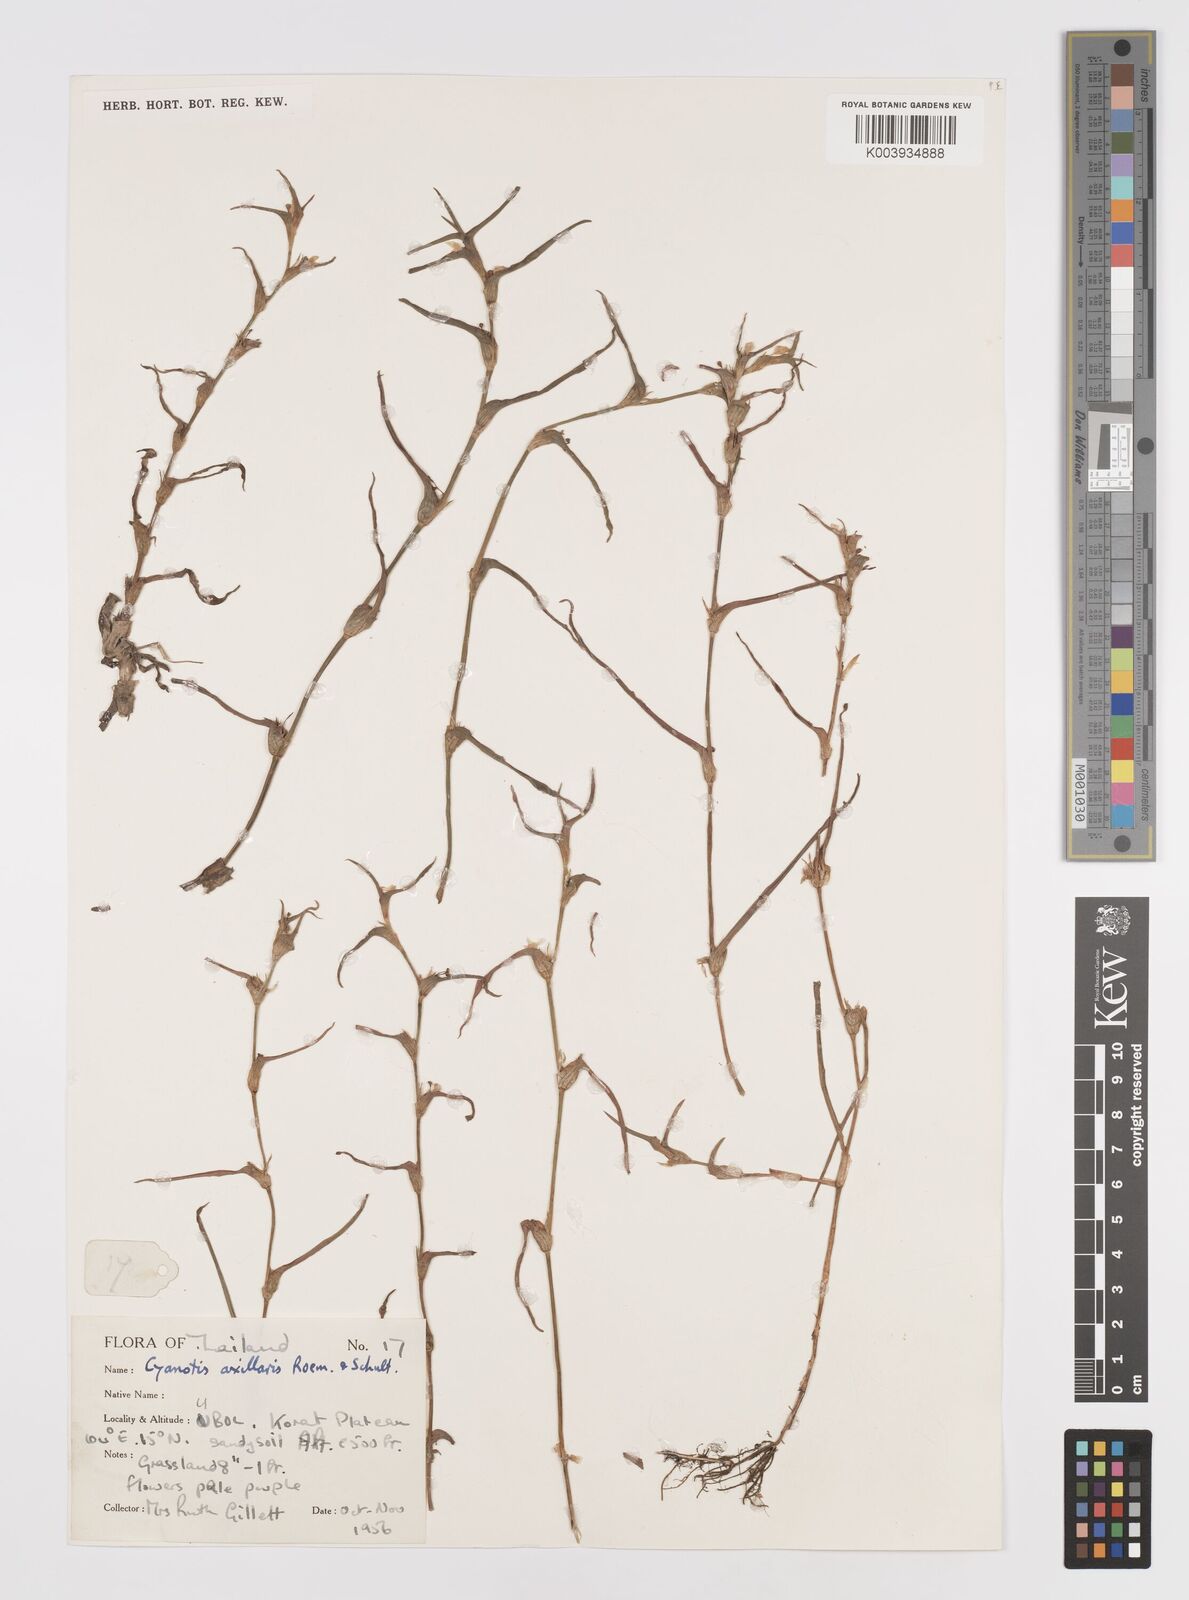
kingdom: Plantae
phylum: Tracheophyta
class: Liliopsida
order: Commelinales
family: Commelinaceae
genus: Cyanotis
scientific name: Cyanotis axillaris
